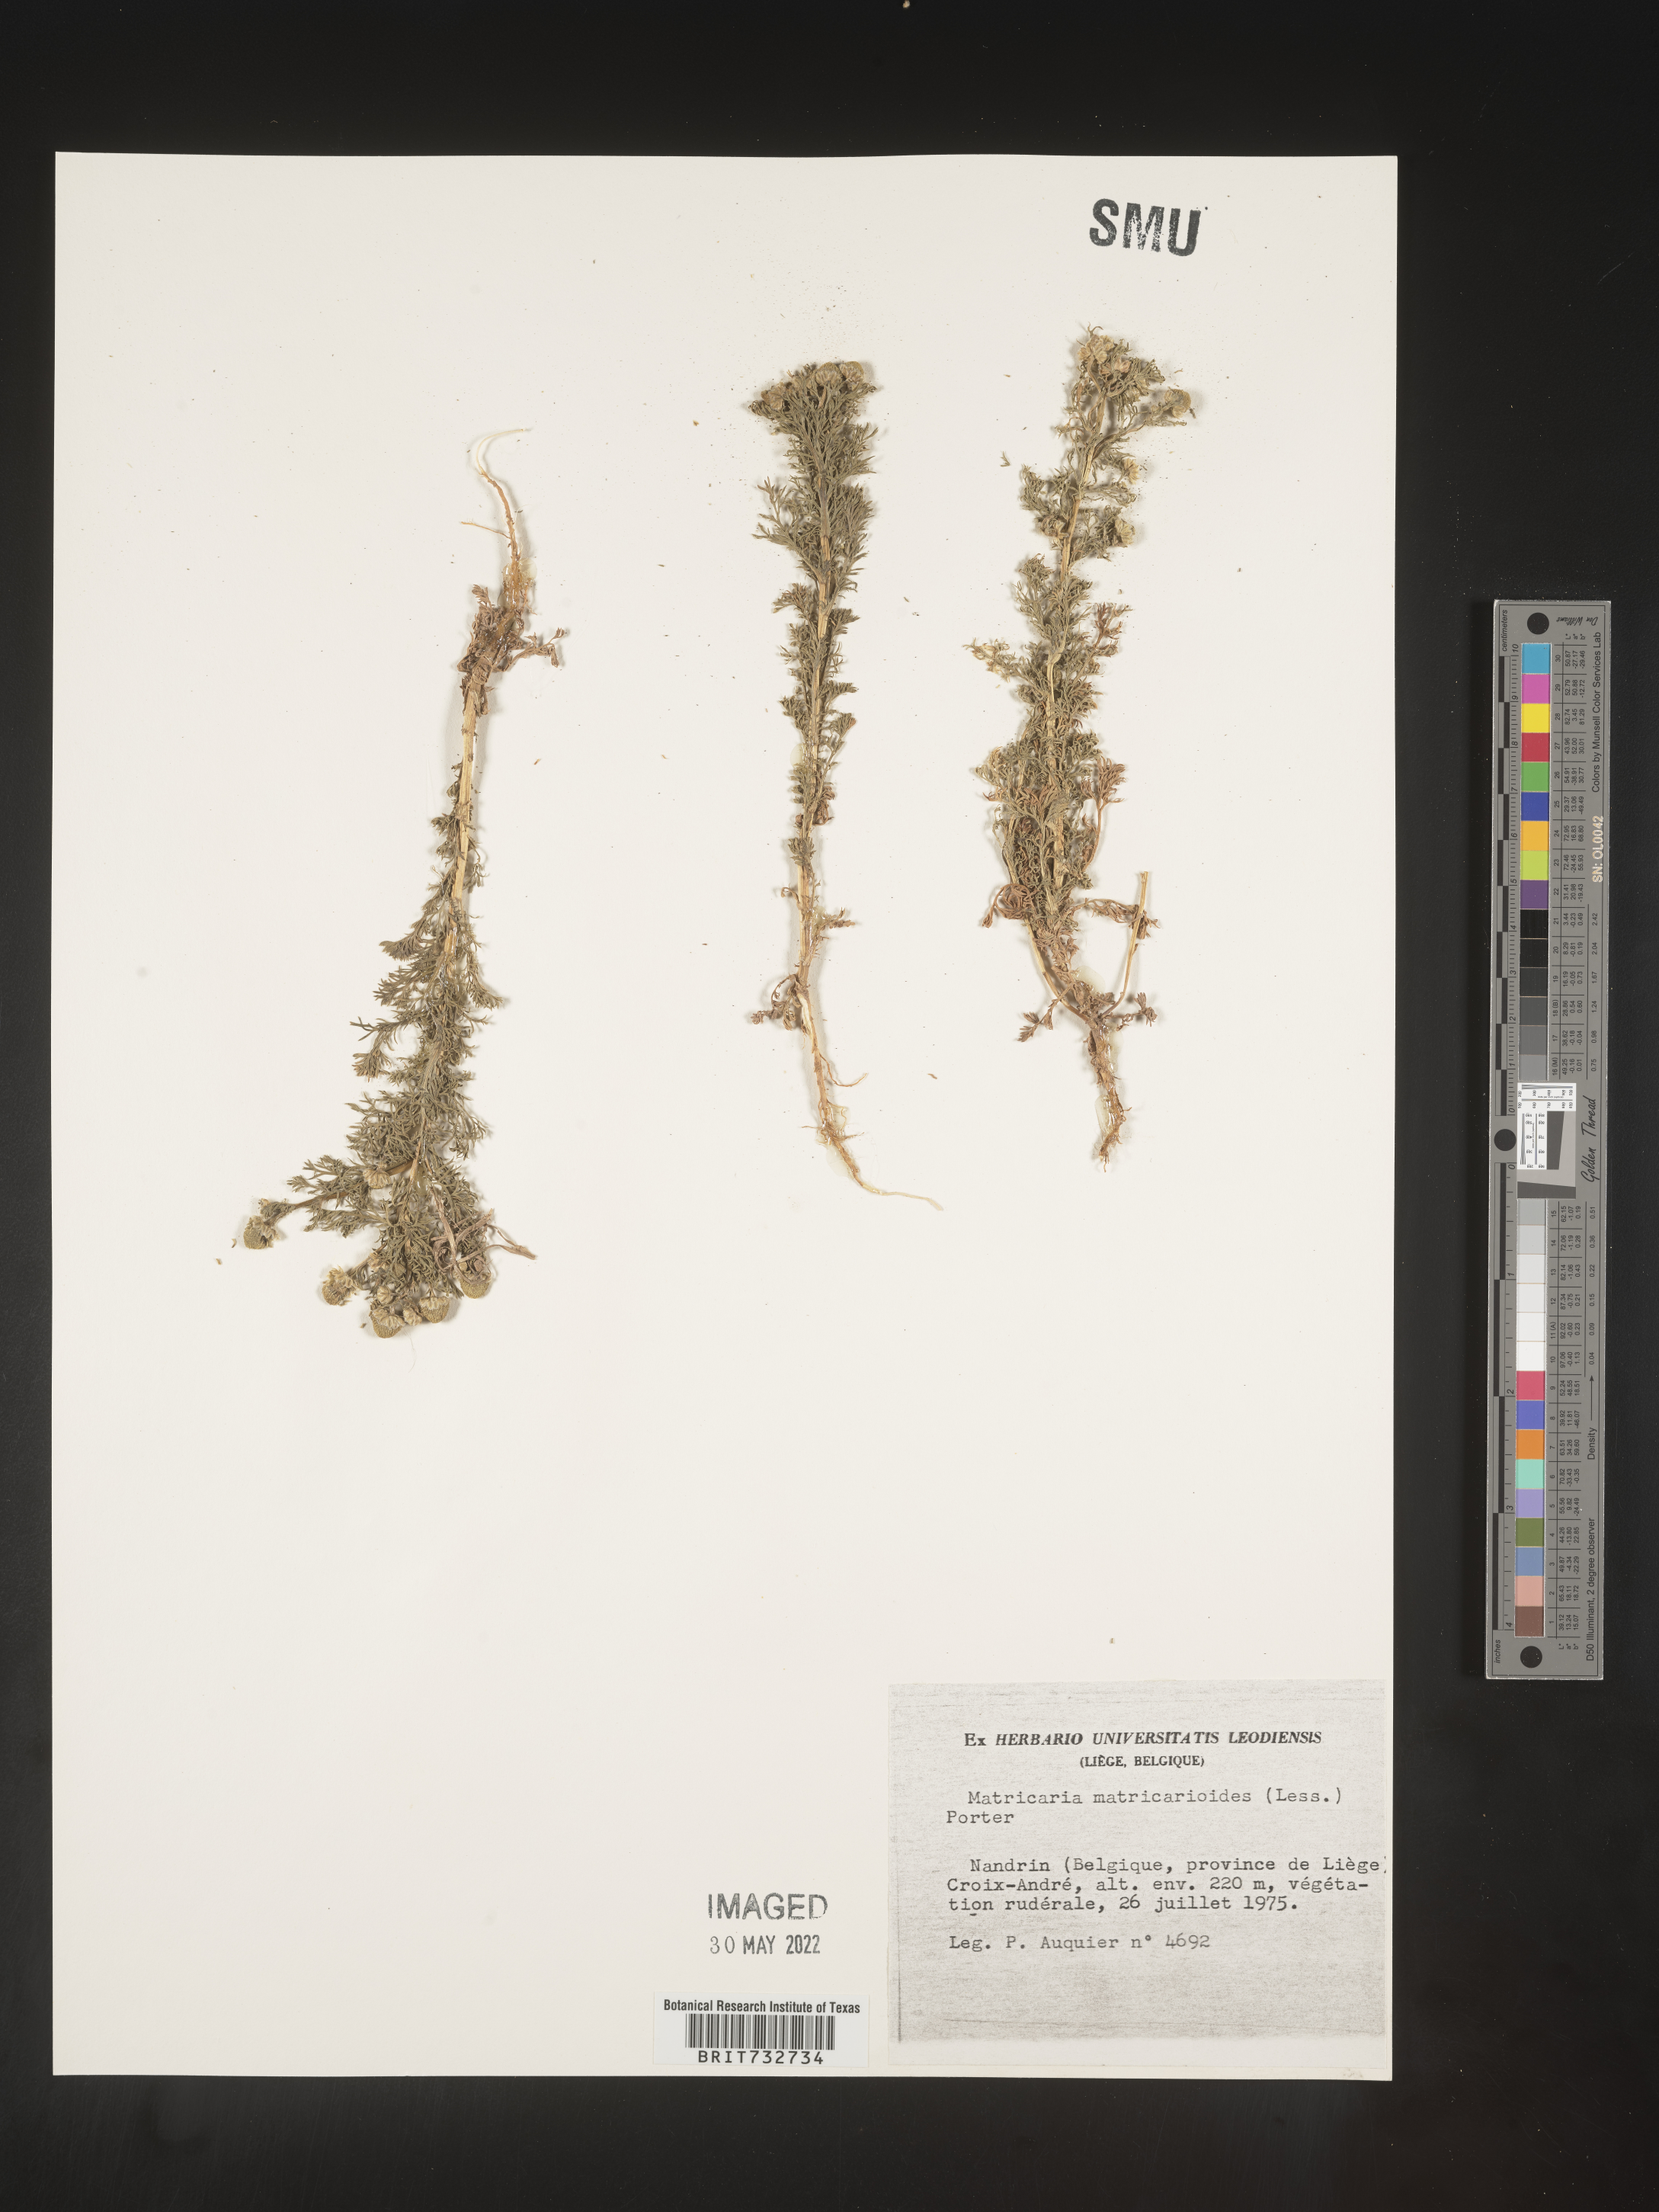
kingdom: Plantae
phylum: Tracheophyta
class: Magnoliopsida
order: Asterales
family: Asteraceae
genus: Matricaria
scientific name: Matricaria
